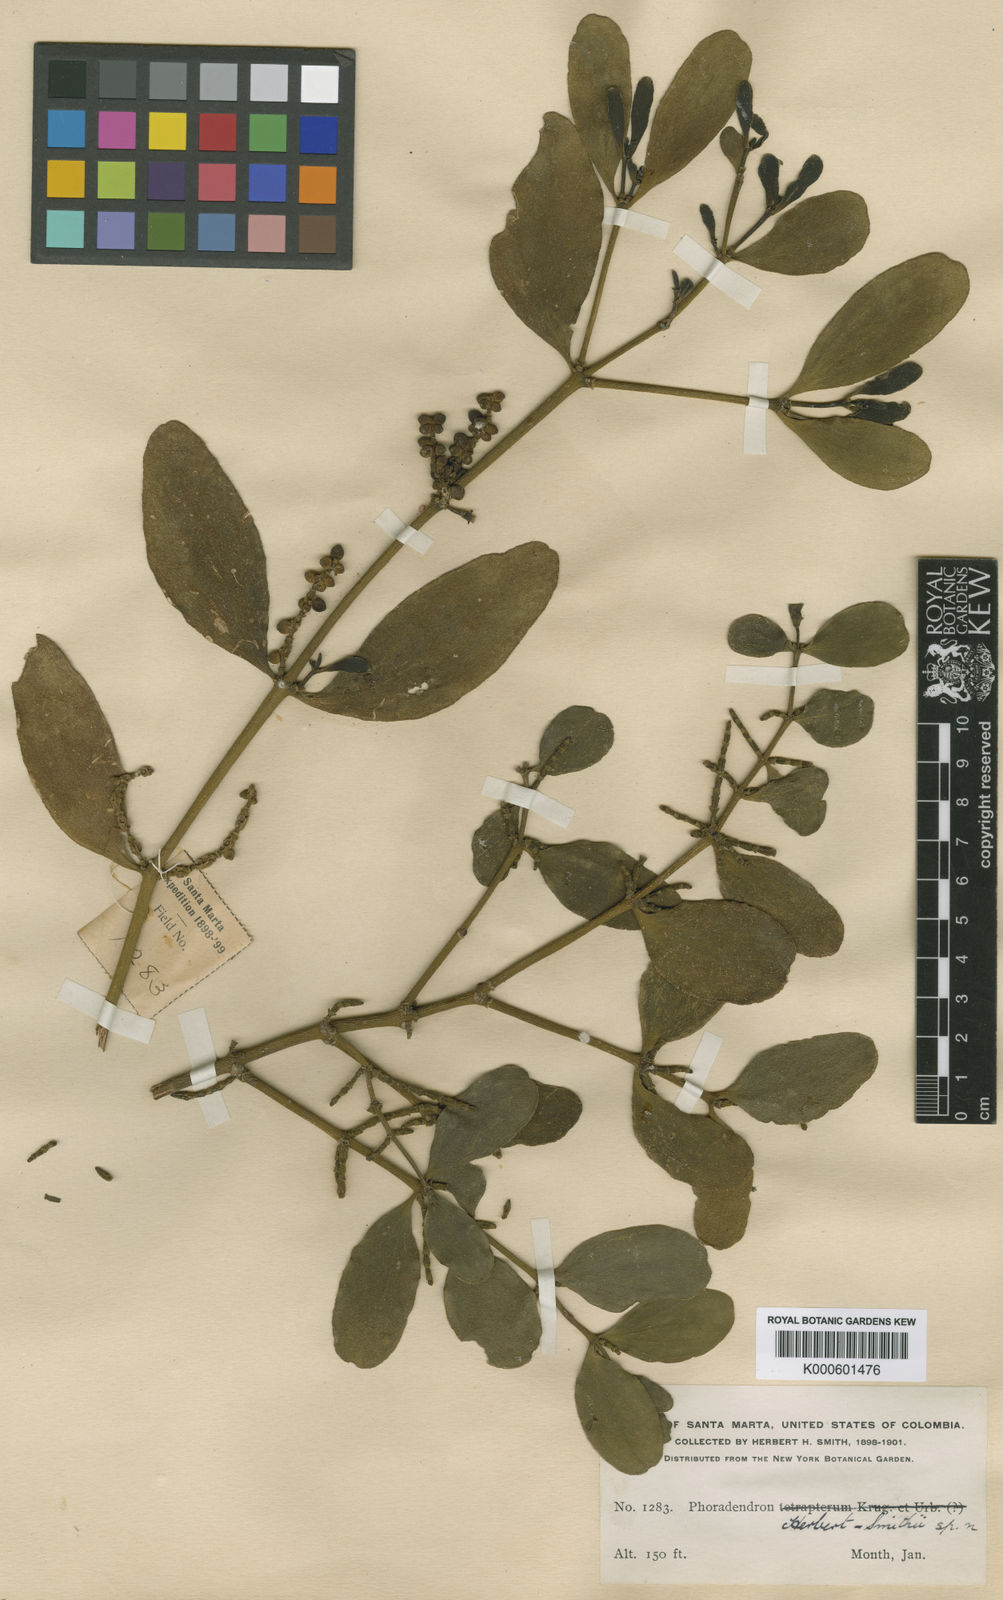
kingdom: Plantae
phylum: Tracheophyta
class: Magnoliopsida
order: Santalales
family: Viscaceae
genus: Phoradendron
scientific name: Phoradendron herbert-smithii
